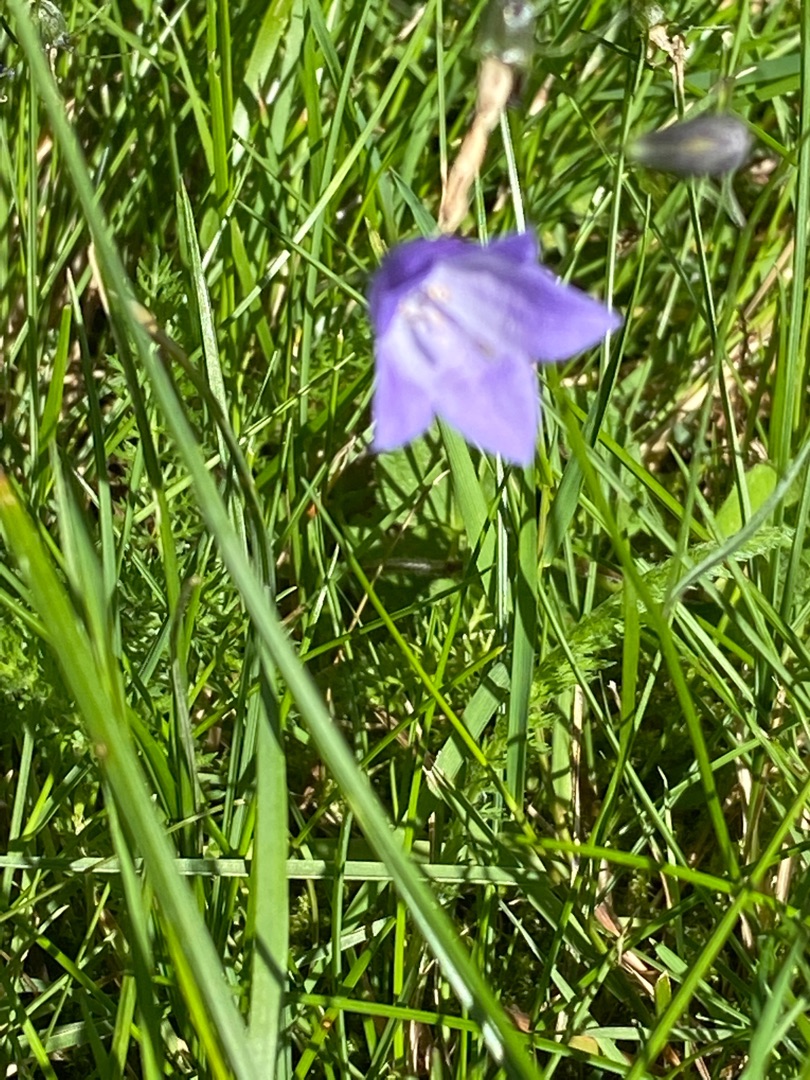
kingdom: Plantae
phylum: Tracheophyta
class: Magnoliopsida
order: Asterales
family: Campanulaceae
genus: Campanula
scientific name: Campanula rotundifolia
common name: Liden klokke
